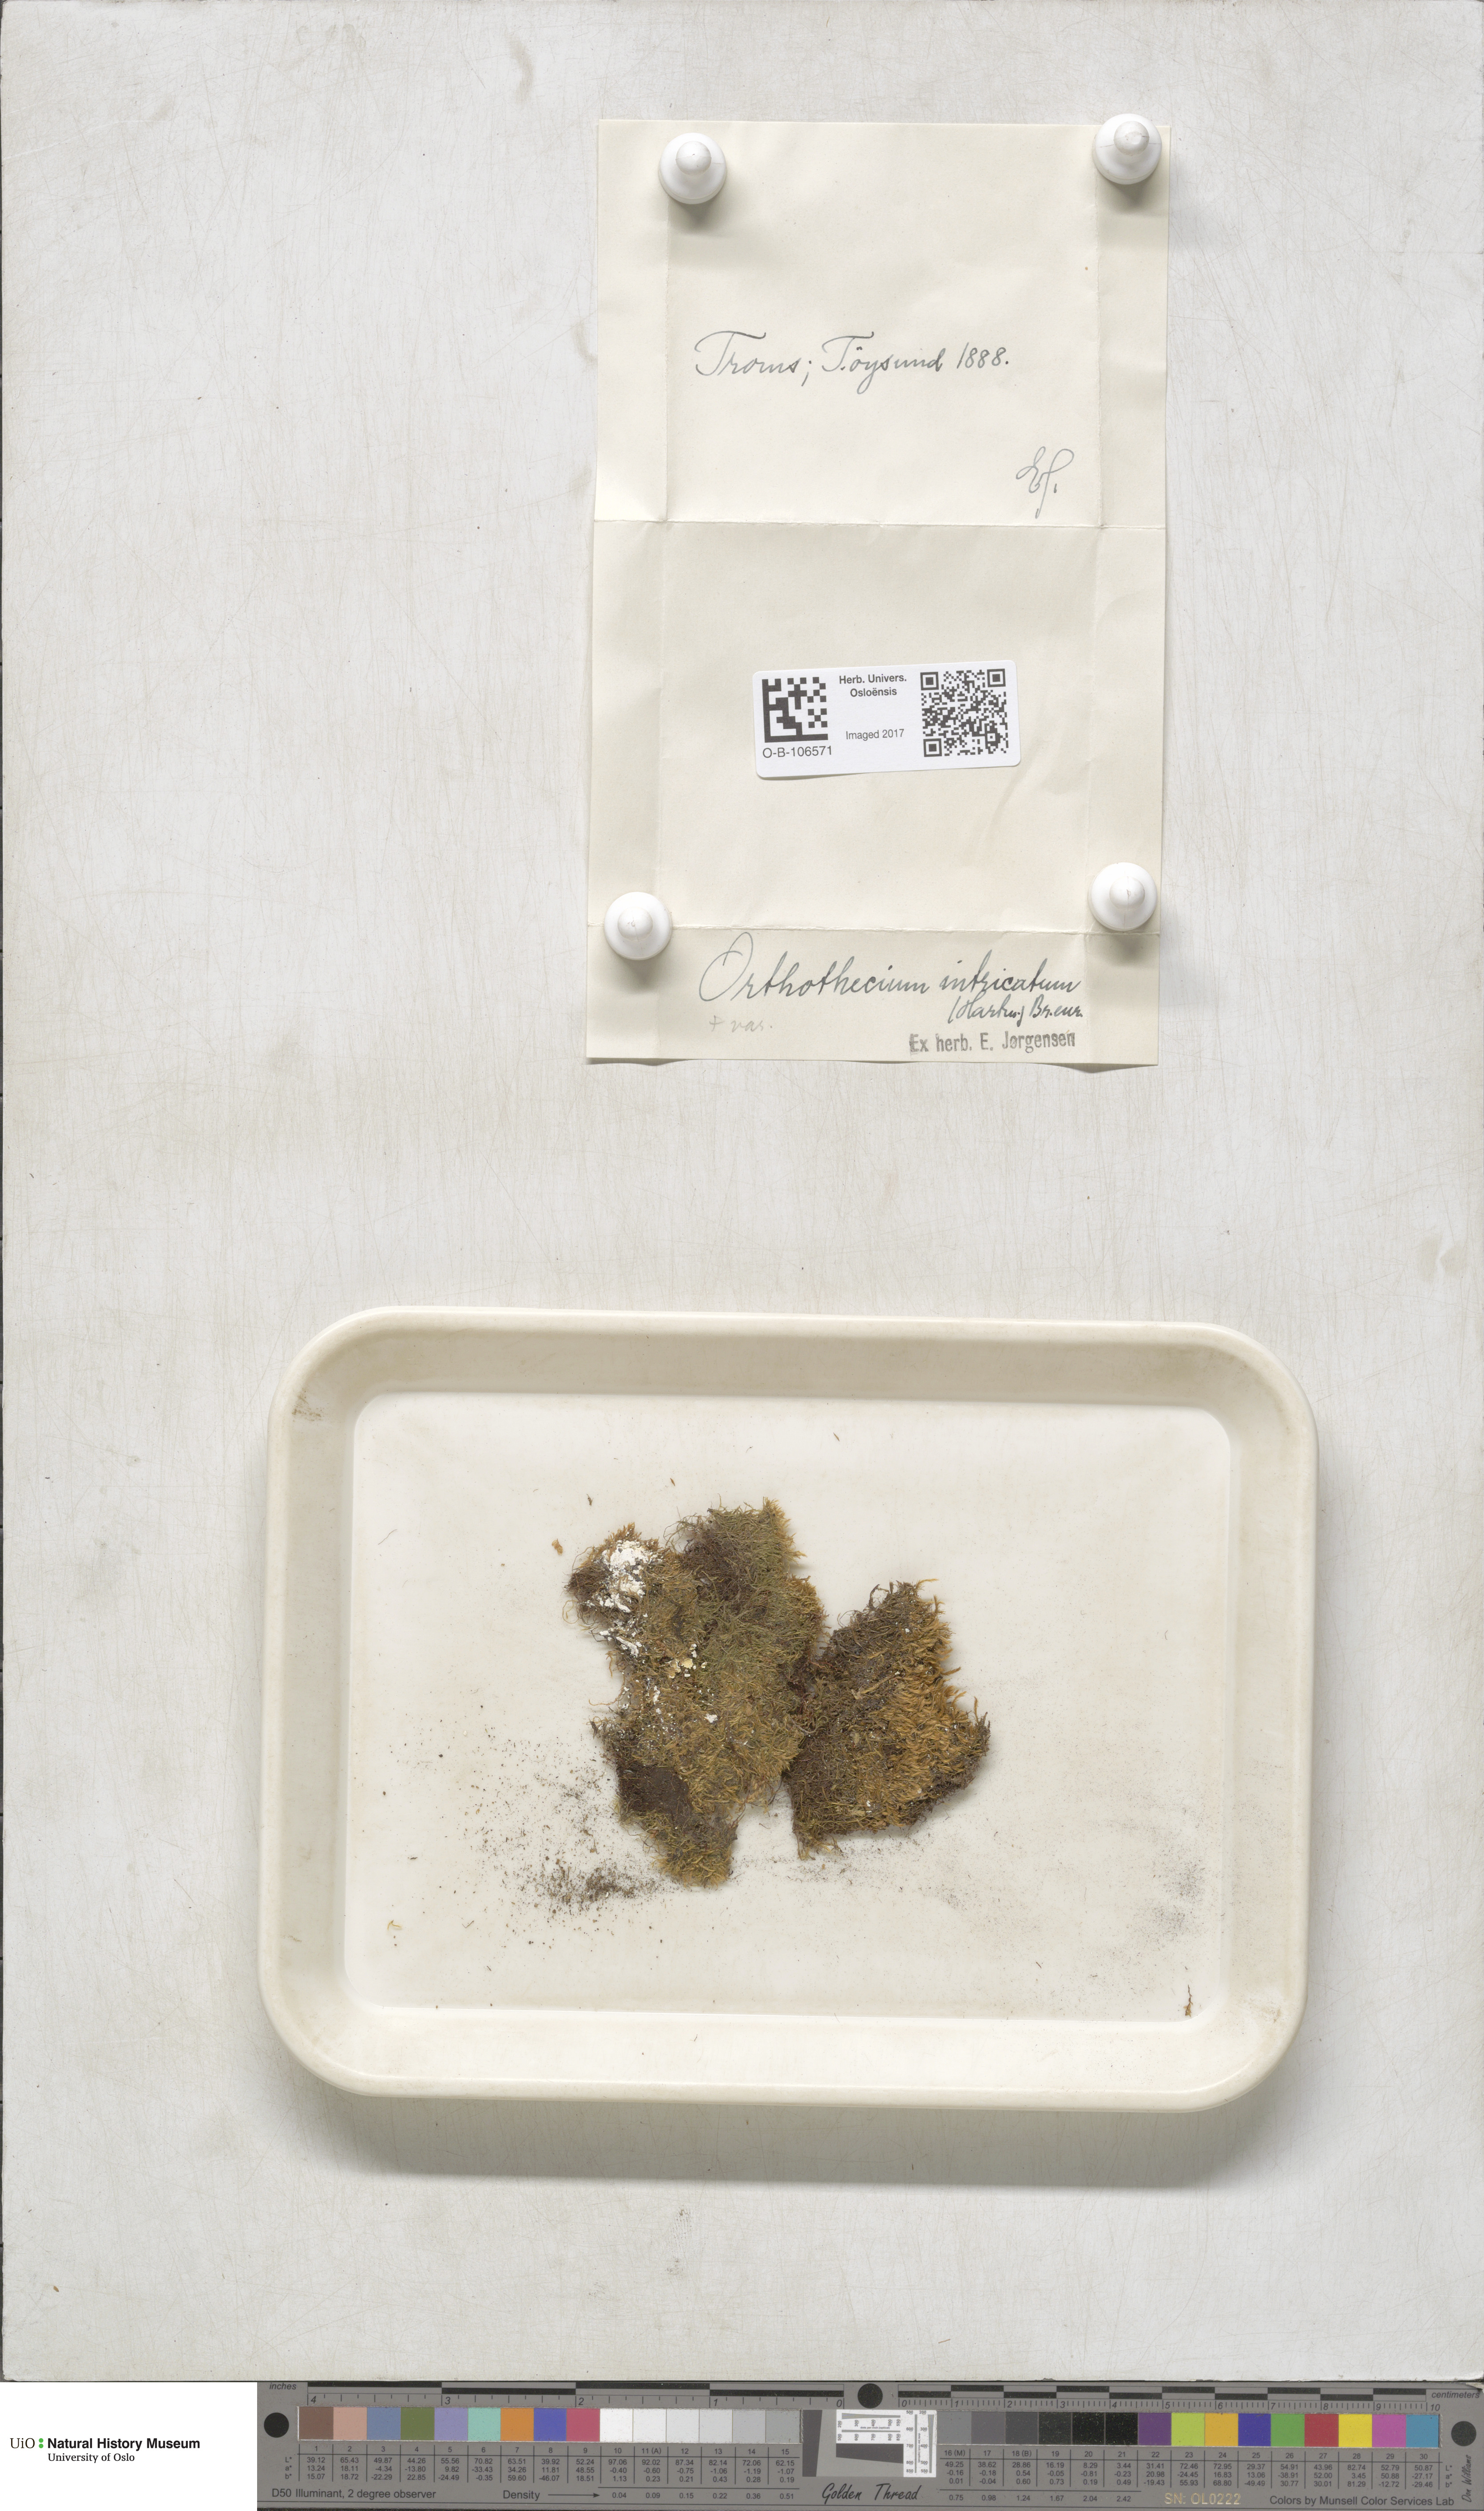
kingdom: Plantae
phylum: Bryophyta
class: Bryopsida
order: Hypnales
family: Plagiotheciaceae
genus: Orthothecium
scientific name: Orthothecium intricatum
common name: Fine-leaved erect-capsule moss
